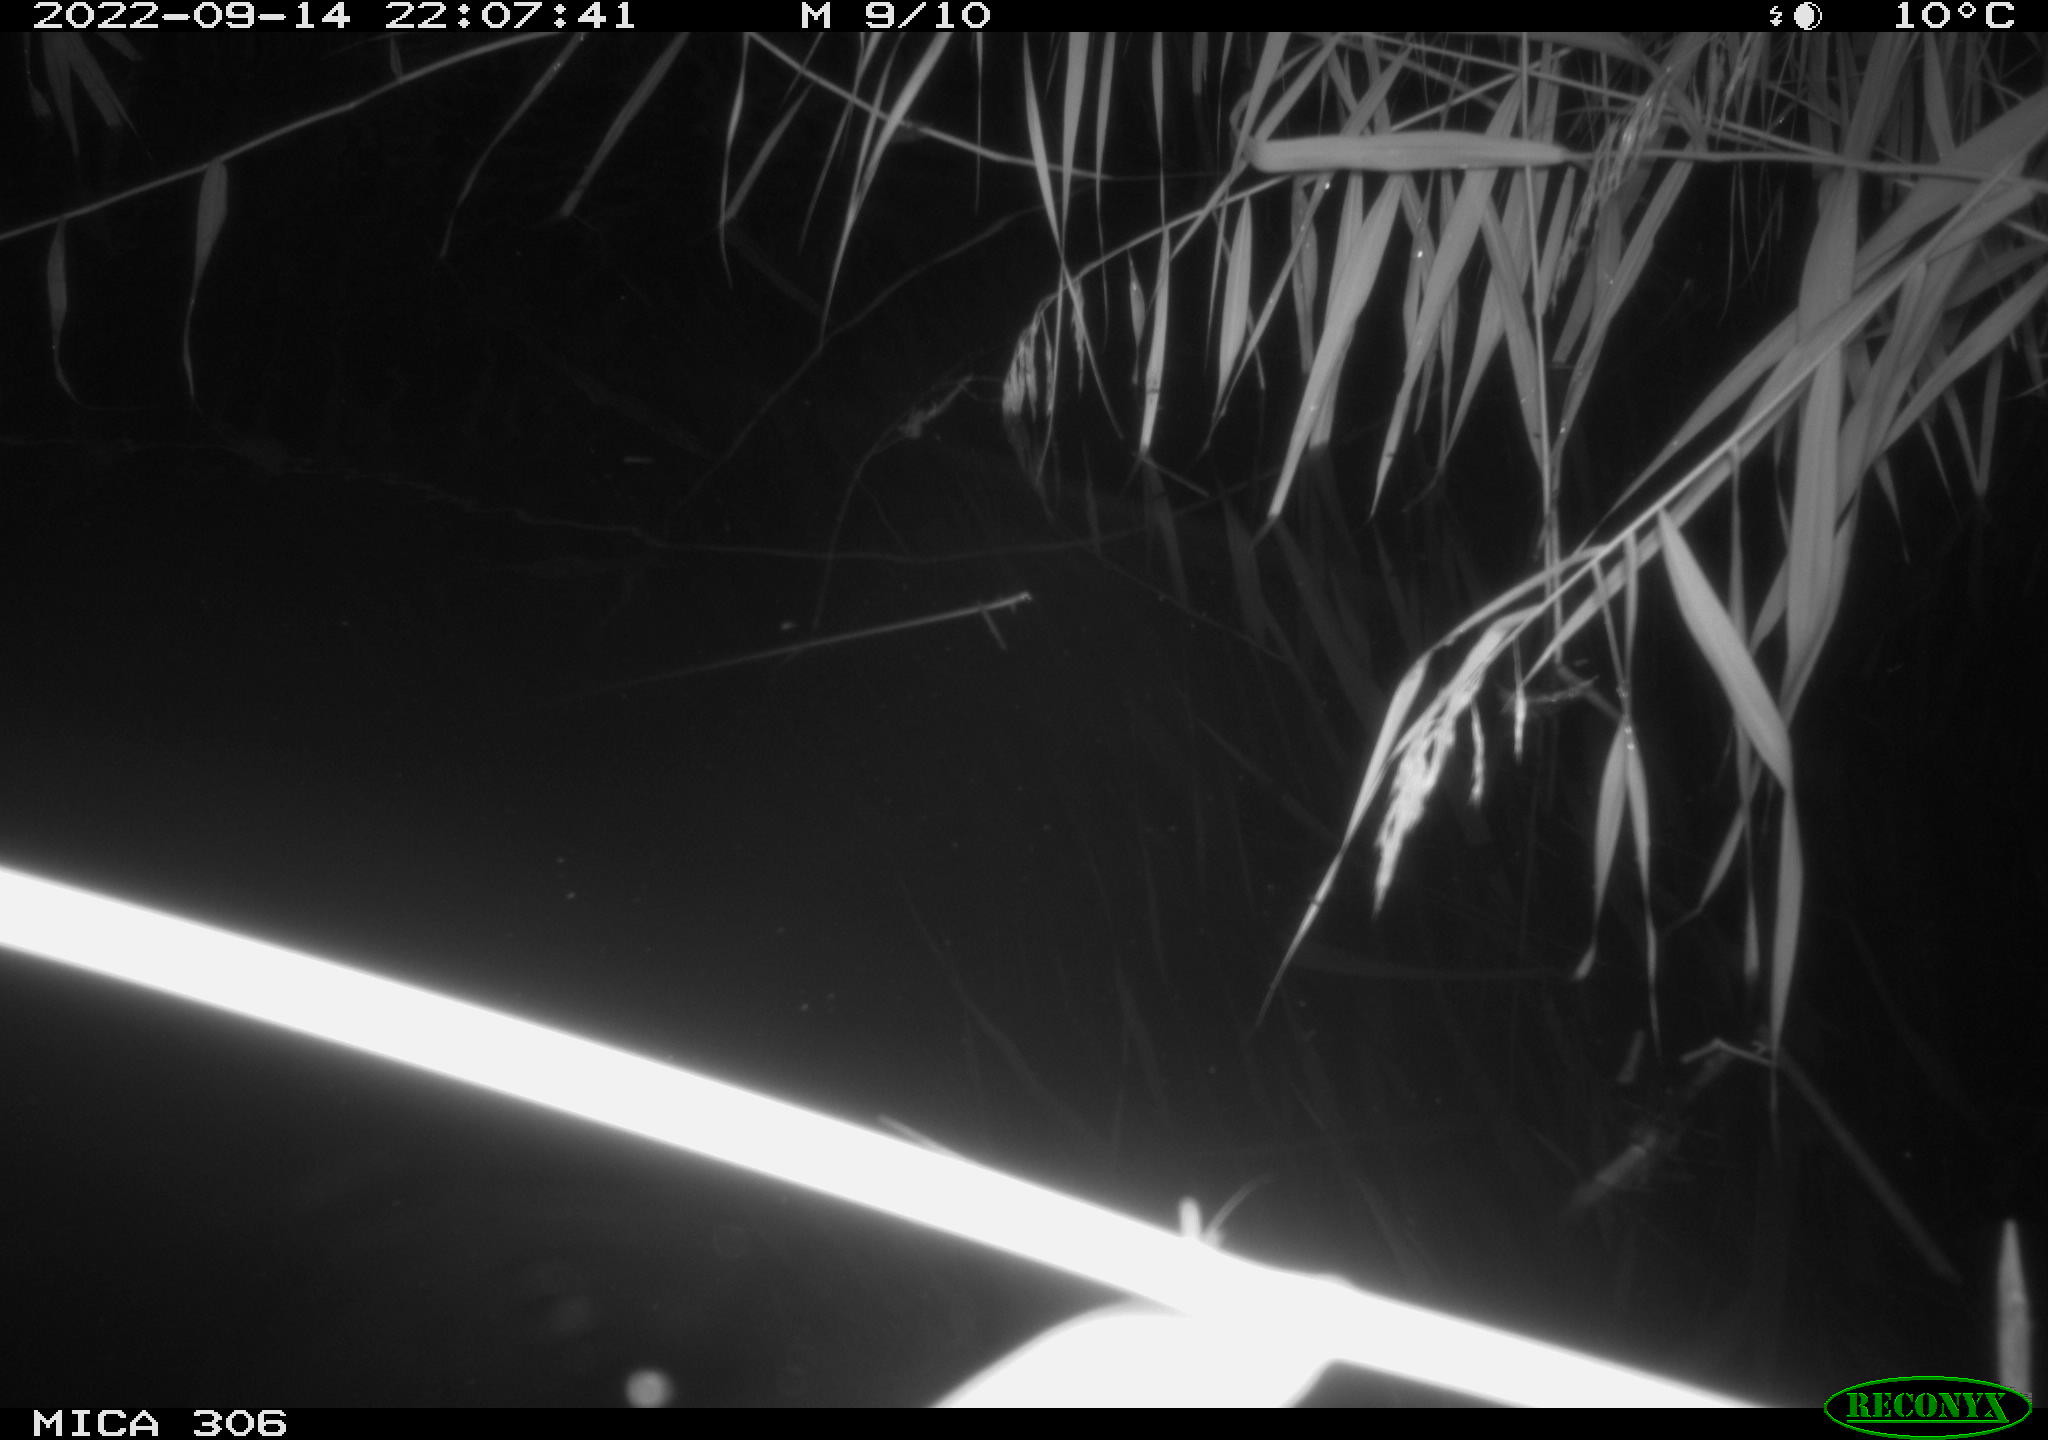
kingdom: Animalia
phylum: Chordata
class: Mammalia
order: Rodentia
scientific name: Rodentia
